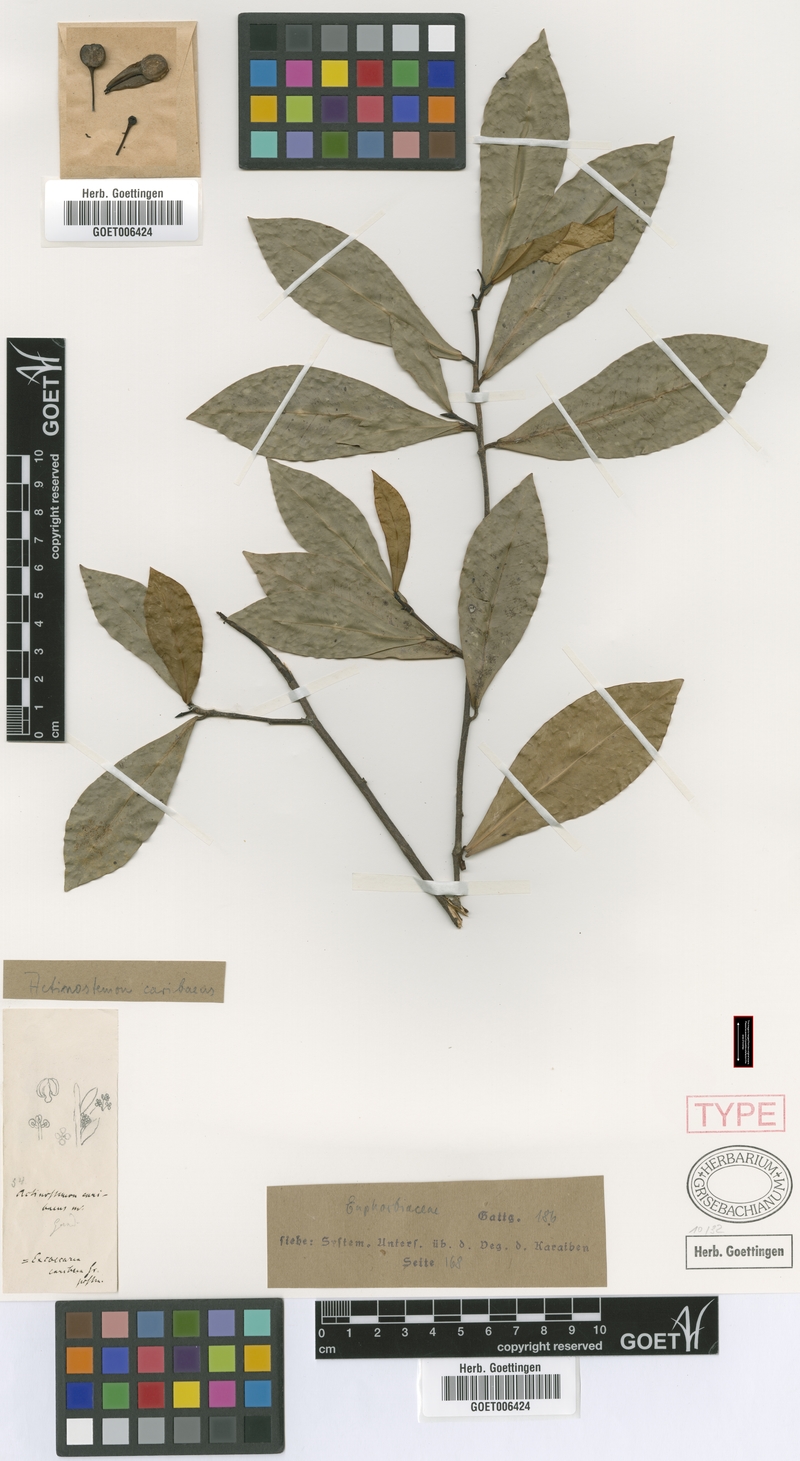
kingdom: Plantae
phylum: Tracheophyta
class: Magnoliopsida
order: Malpighiales
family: Euphorbiaceae
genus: Actinostemon
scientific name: Actinostemon concolor
